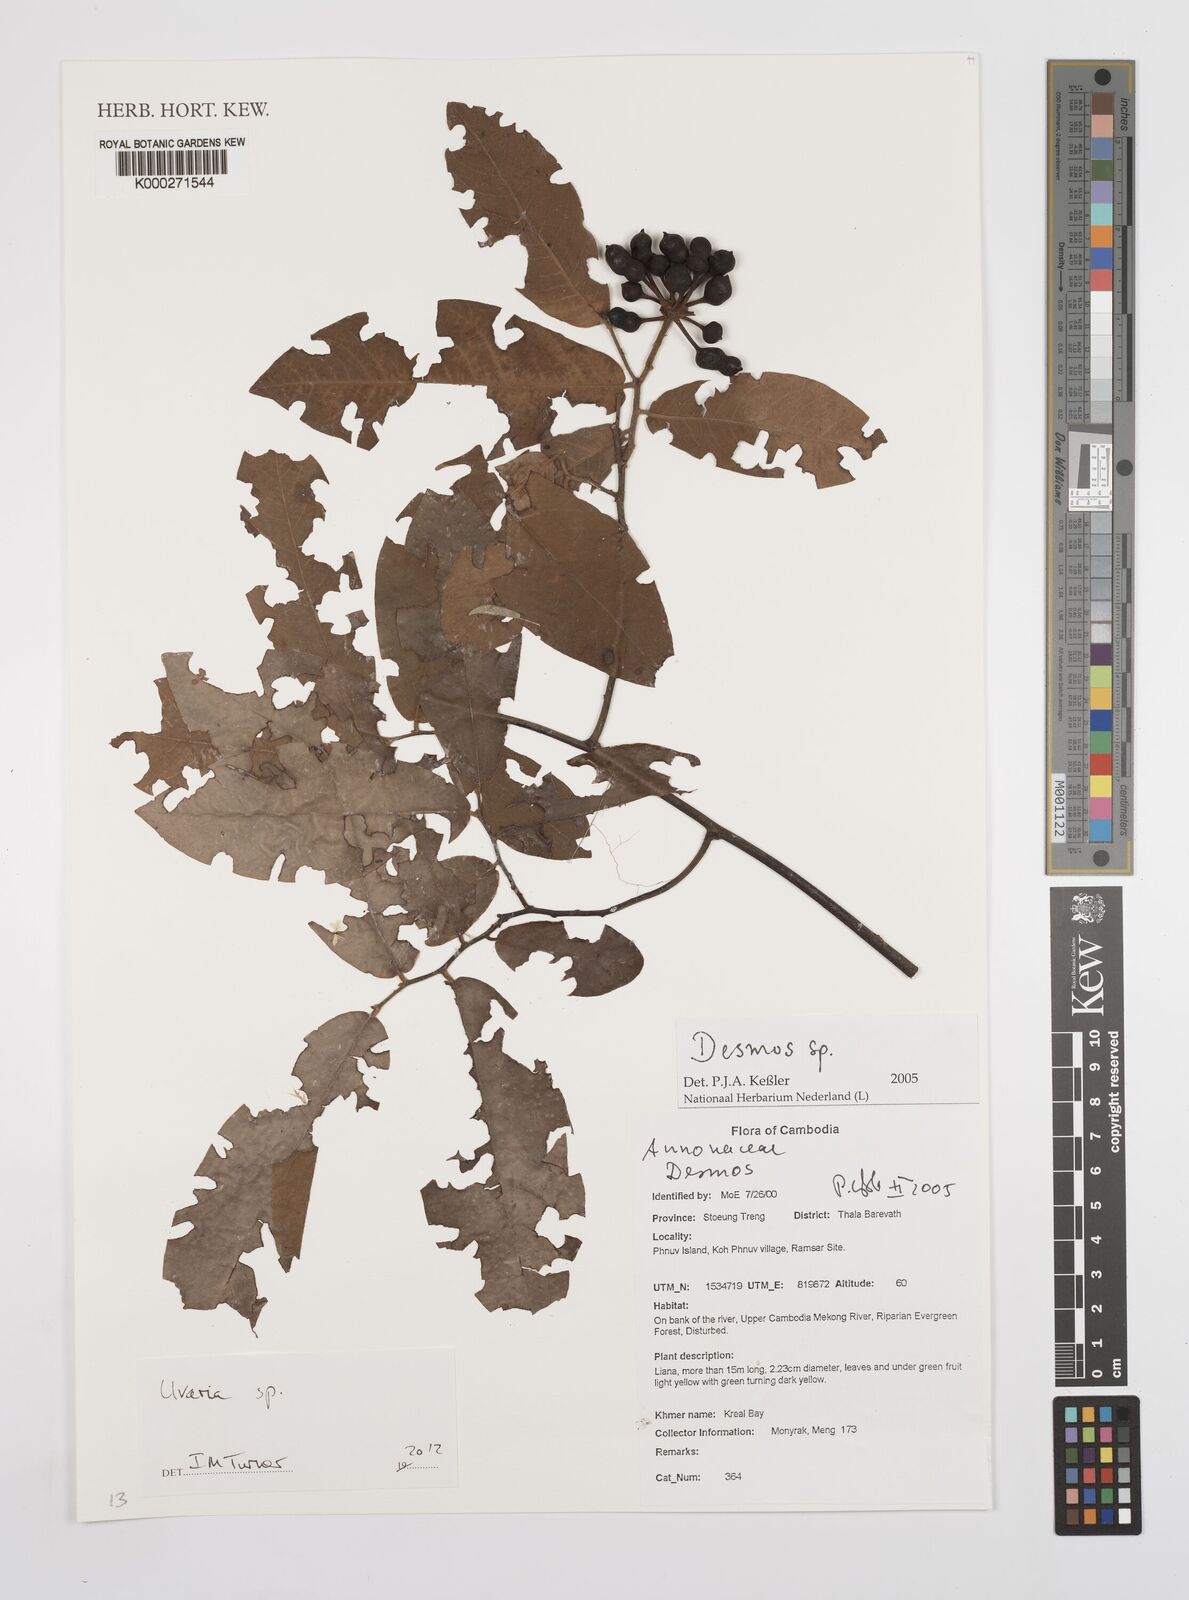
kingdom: Plantae
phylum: Tracheophyta
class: Magnoliopsida
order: Magnoliales
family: Annonaceae
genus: Desmos
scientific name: Desmos
